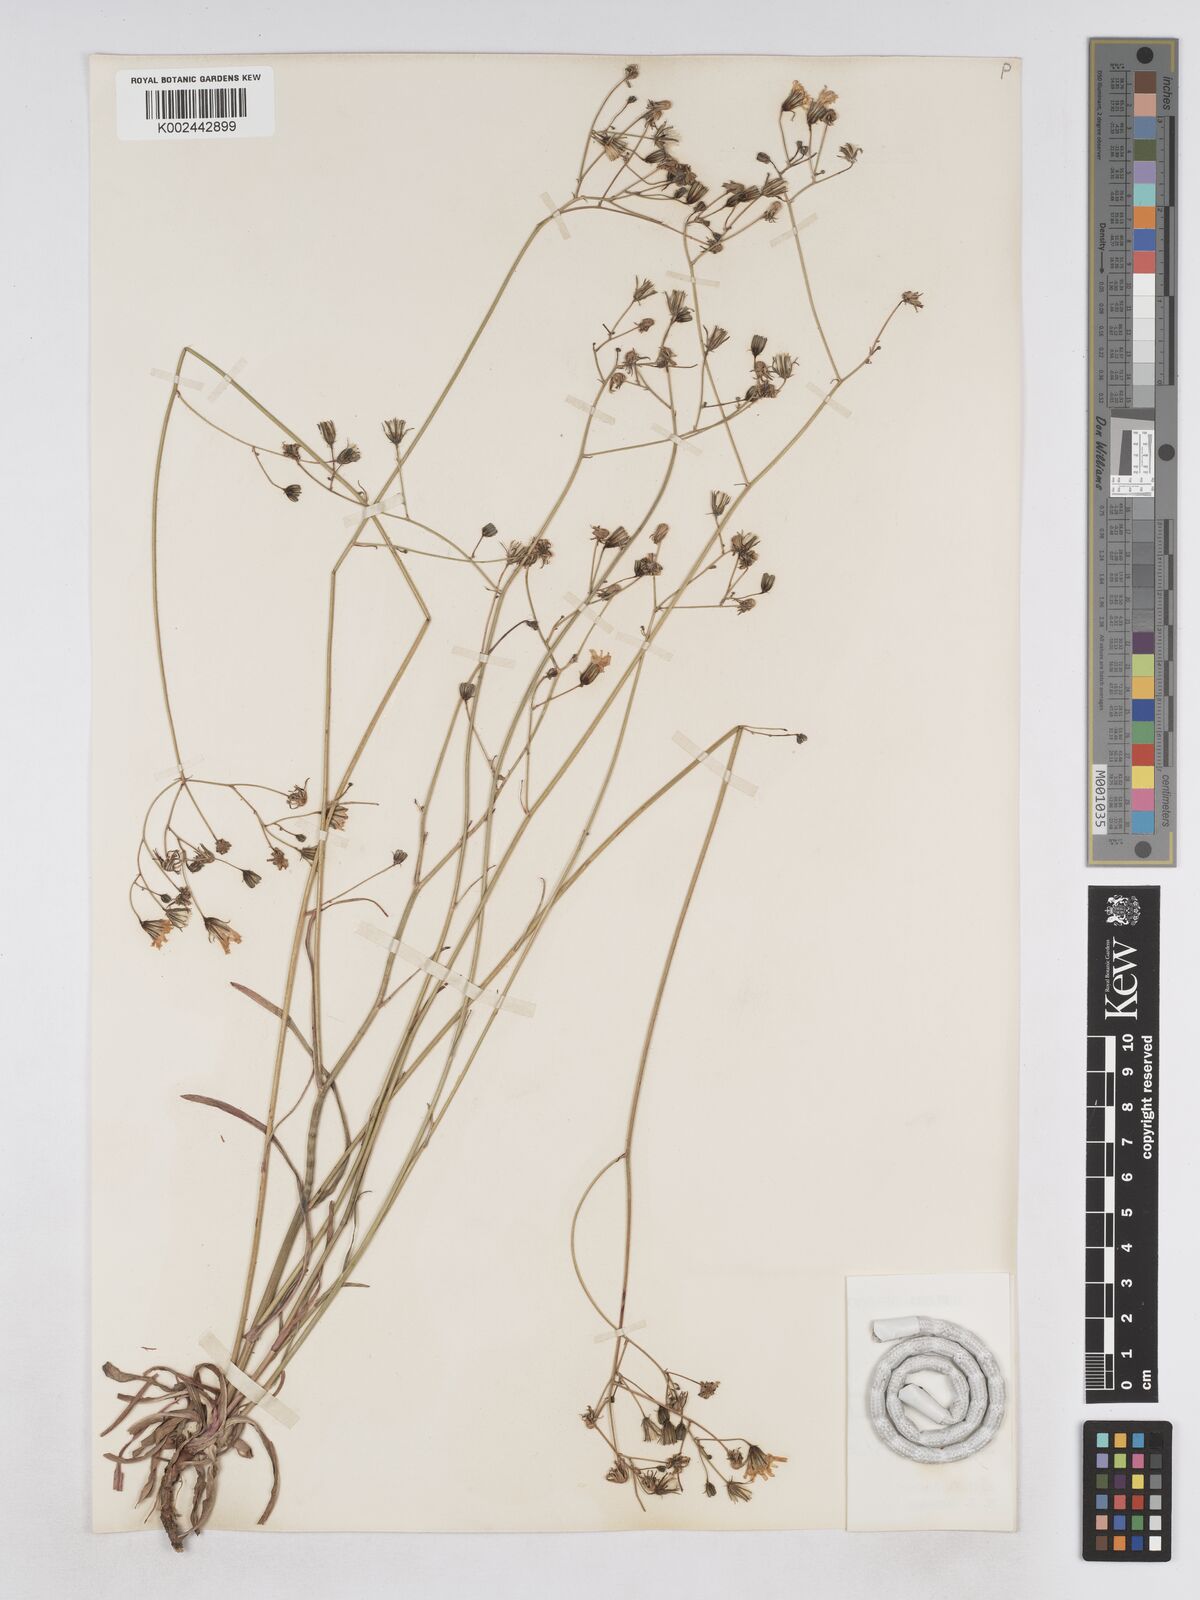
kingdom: Plantae
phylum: Tracheophyta
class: Magnoliopsida
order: Asterales
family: Asteraceae
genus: Pilosella
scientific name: Pilosella pavichii
